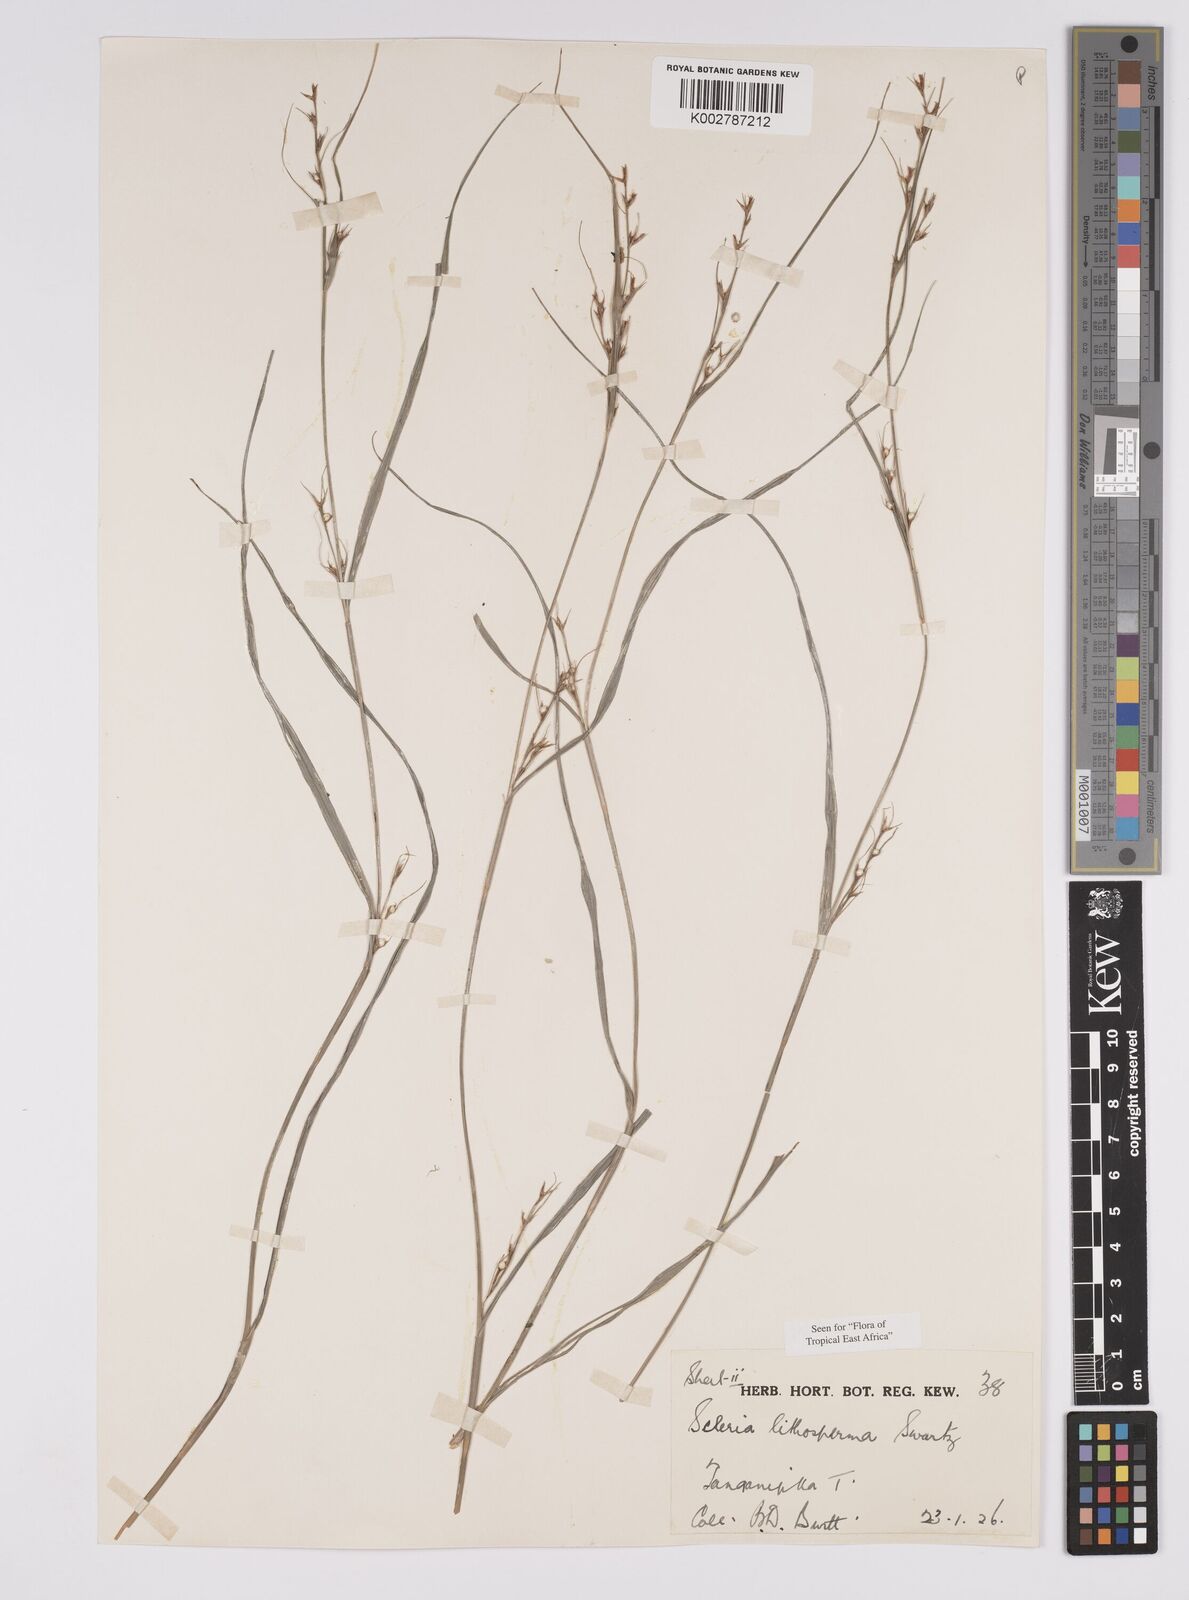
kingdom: Plantae
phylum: Tracheophyta
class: Liliopsida
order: Poales
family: Cyperaceae
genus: Scleria
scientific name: Scleria lithosperma
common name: Florida keys nut-rush
